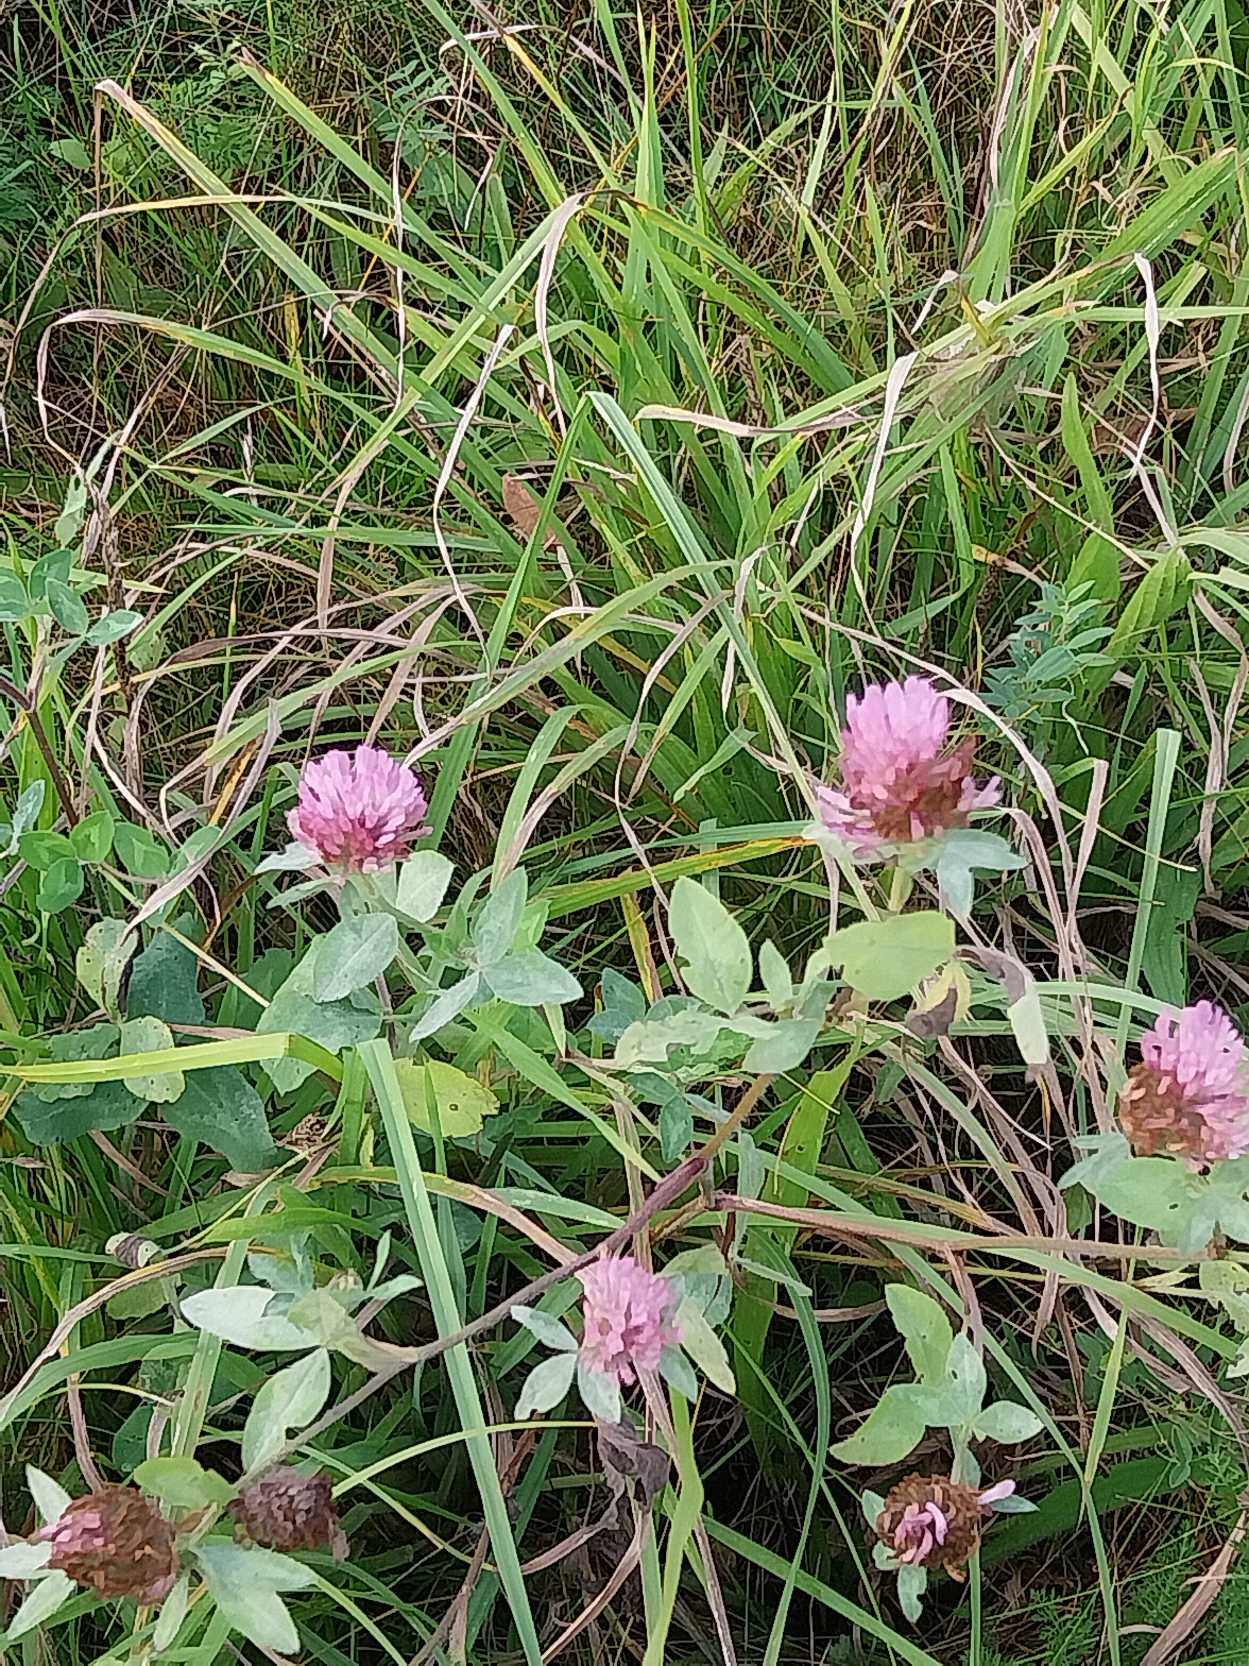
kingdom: Plantae
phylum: Tracheophyta
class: Magnoliopsida
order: Fabales
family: Fabaceae
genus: Trifolium
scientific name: Trifolium pratense
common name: Rød-kløver
